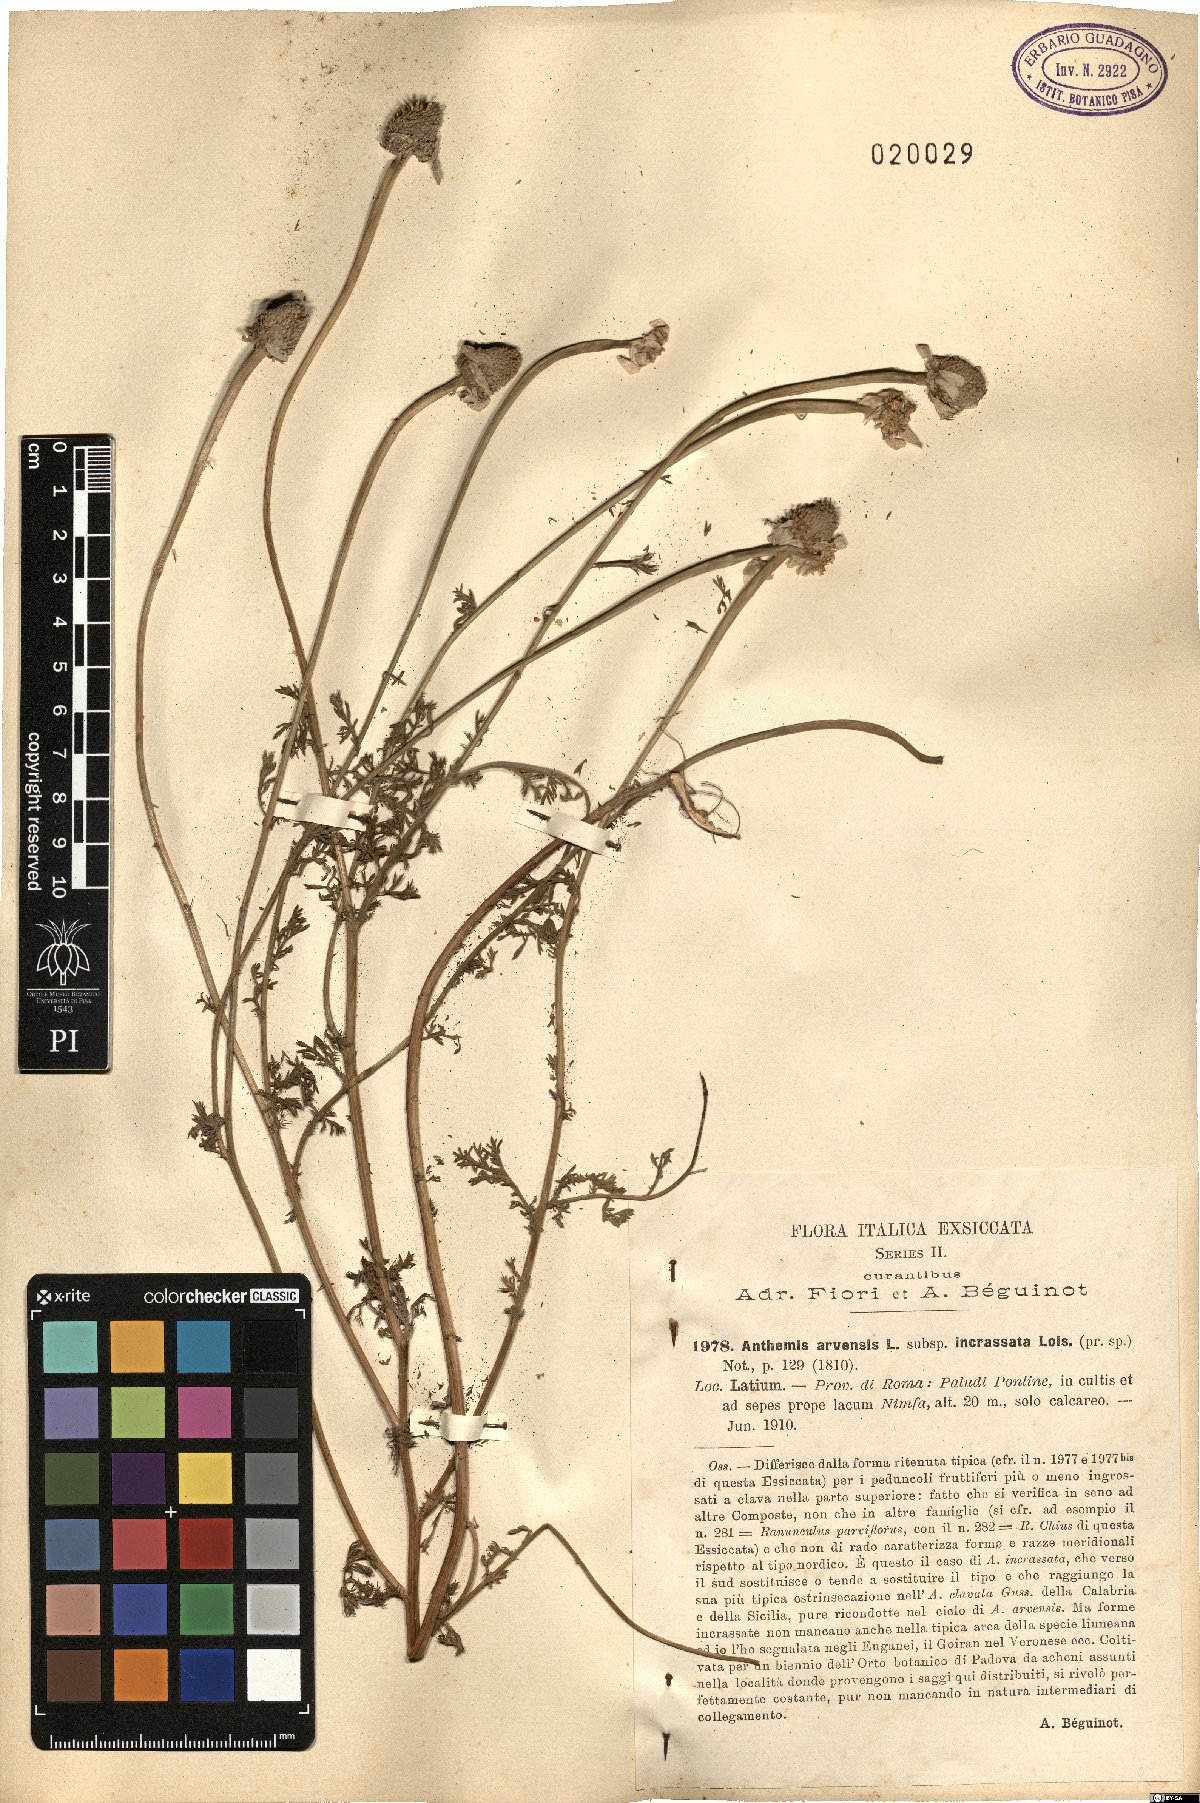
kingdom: Plantae
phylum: Tracheophyta
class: Magnoliopsida
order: Asterales
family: Asteraceae
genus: Anthemis
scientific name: Anthemis arvensis
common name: Corn chamomile
